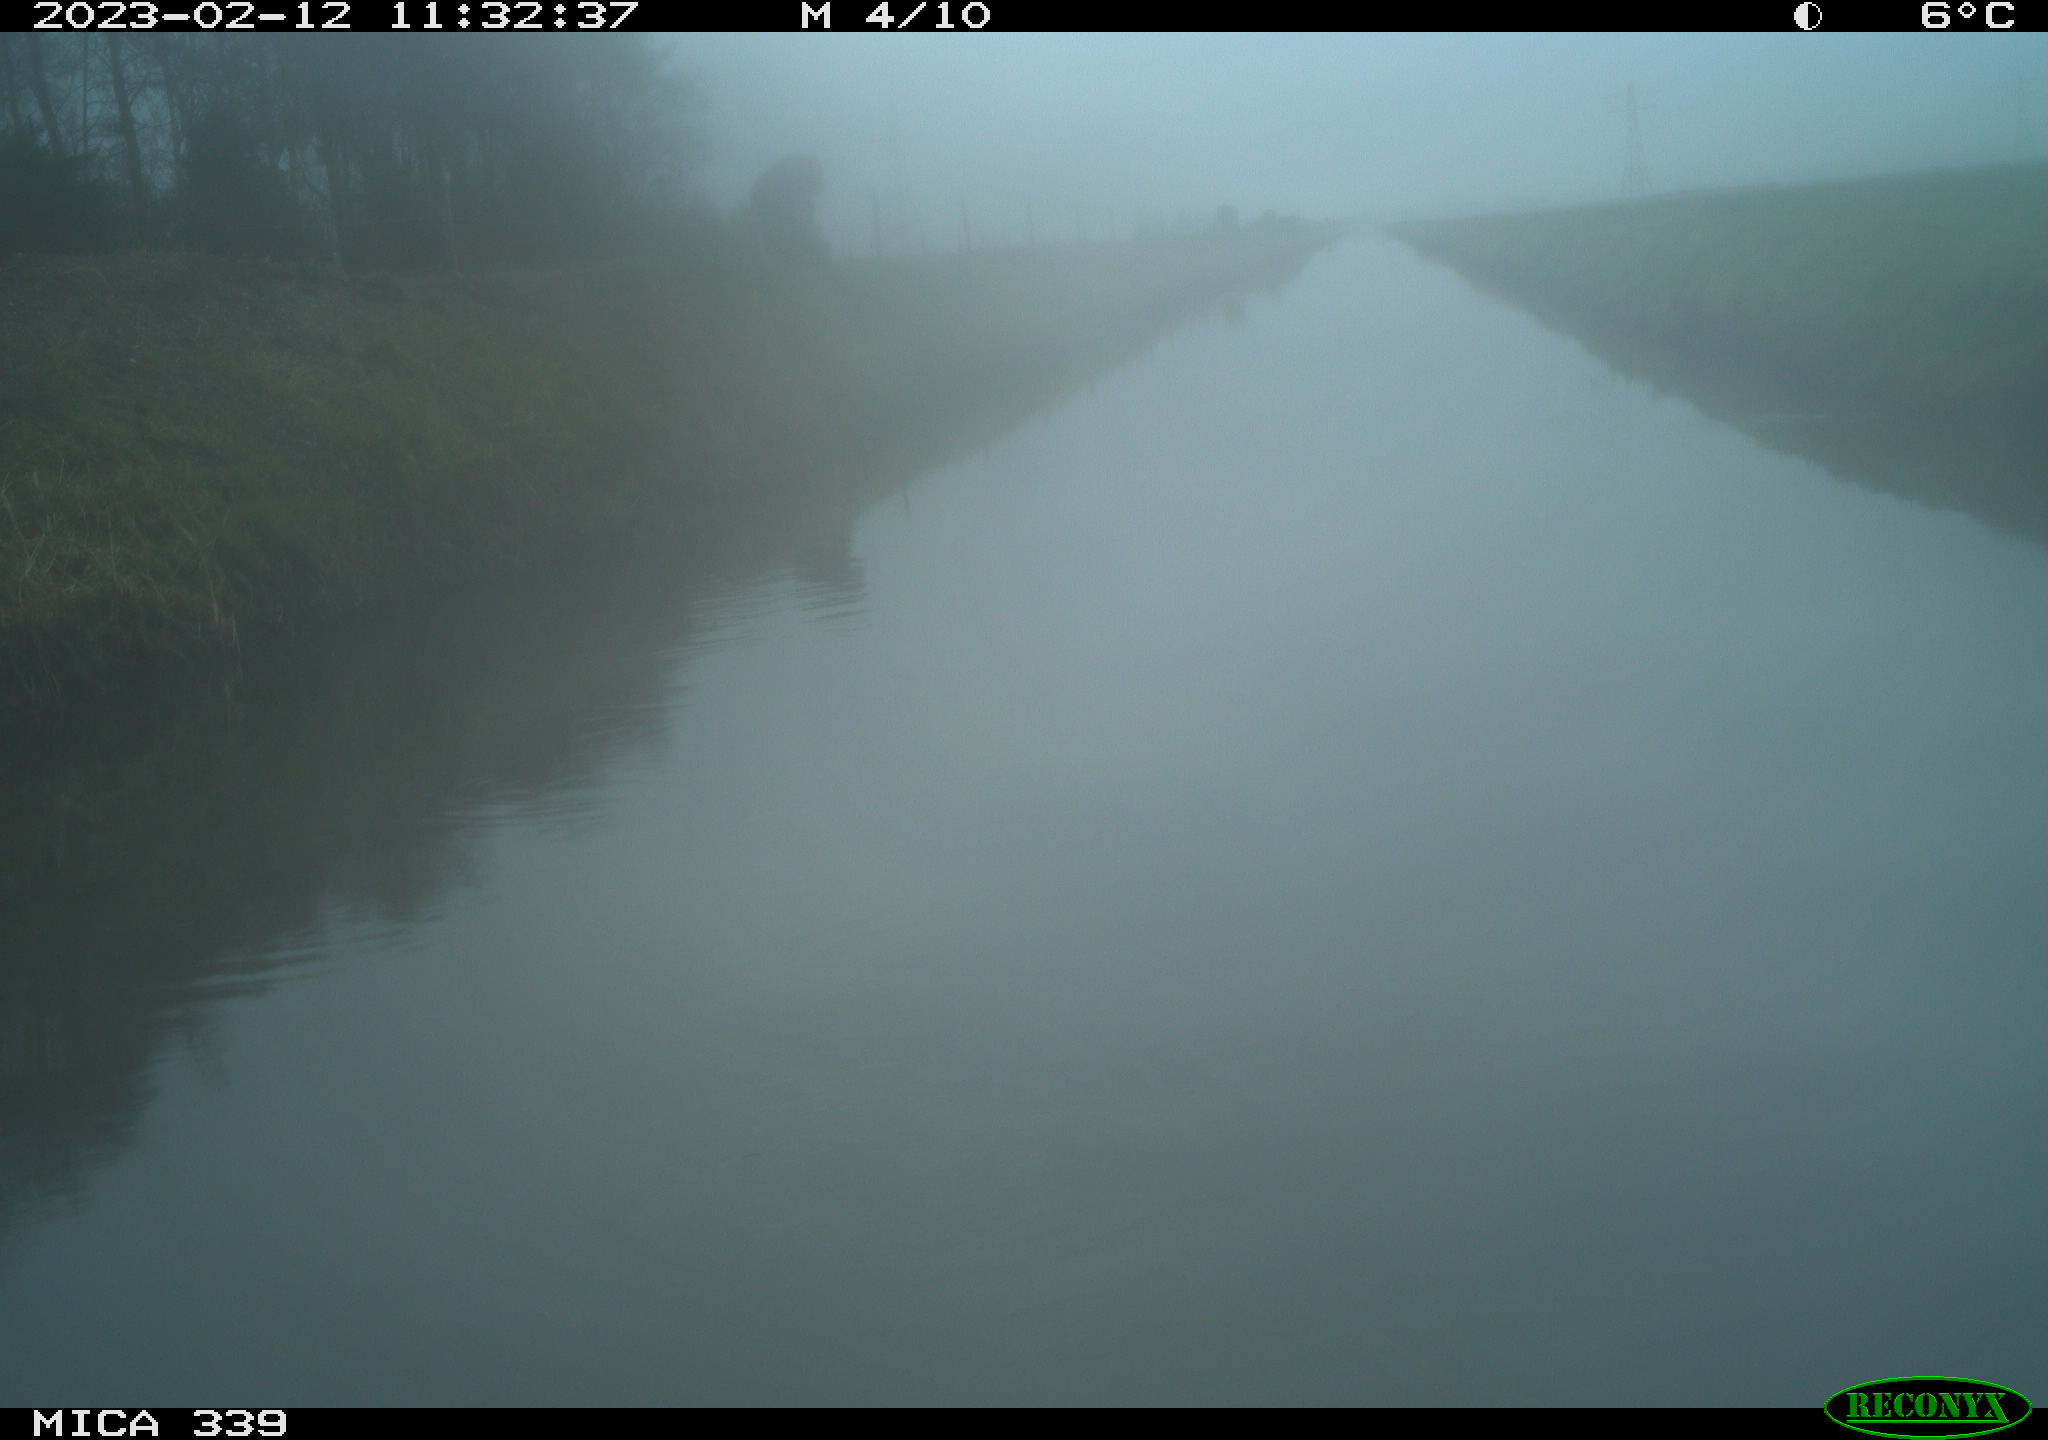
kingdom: Animalia
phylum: Chordata
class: Aves
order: Pelecaniformes
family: Ardeidae
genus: Ardea
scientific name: Ardea cinerea
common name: Grey heron
